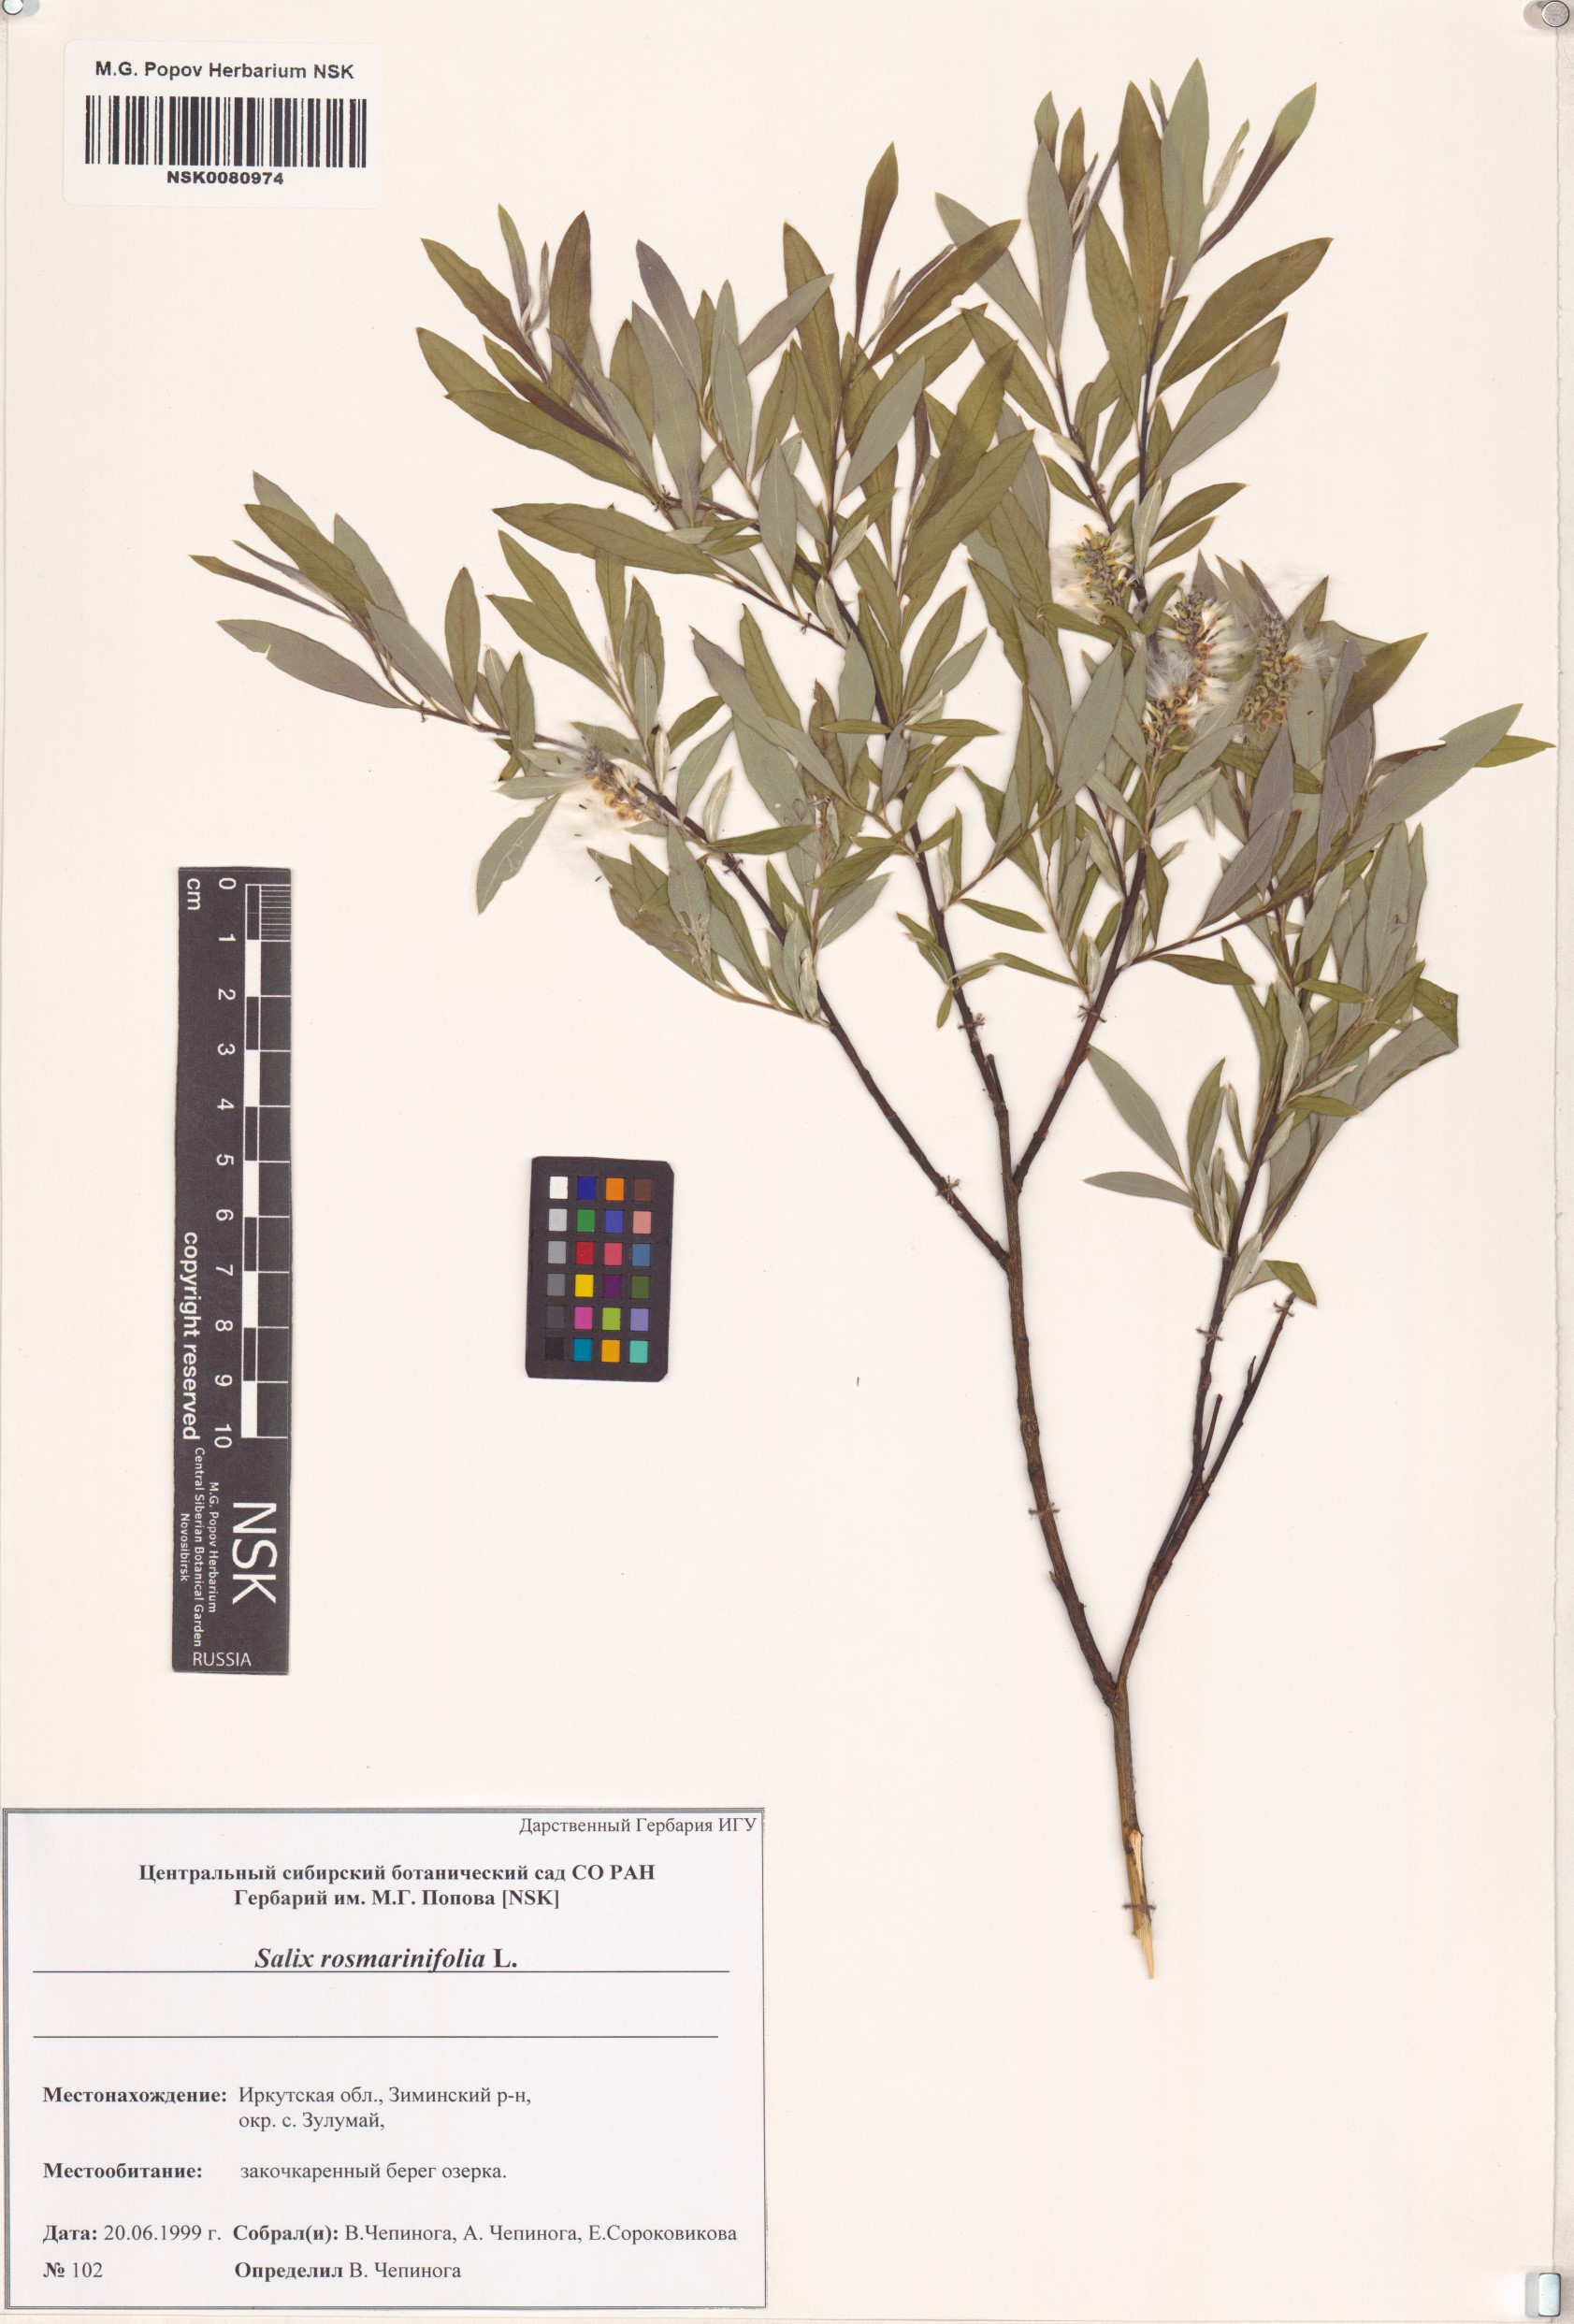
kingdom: Plantae
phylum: Tracheophyta
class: Magnoliopsida
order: Malpighiales
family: Salicaceae
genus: Salix
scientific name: Salix rosmarinifolia
